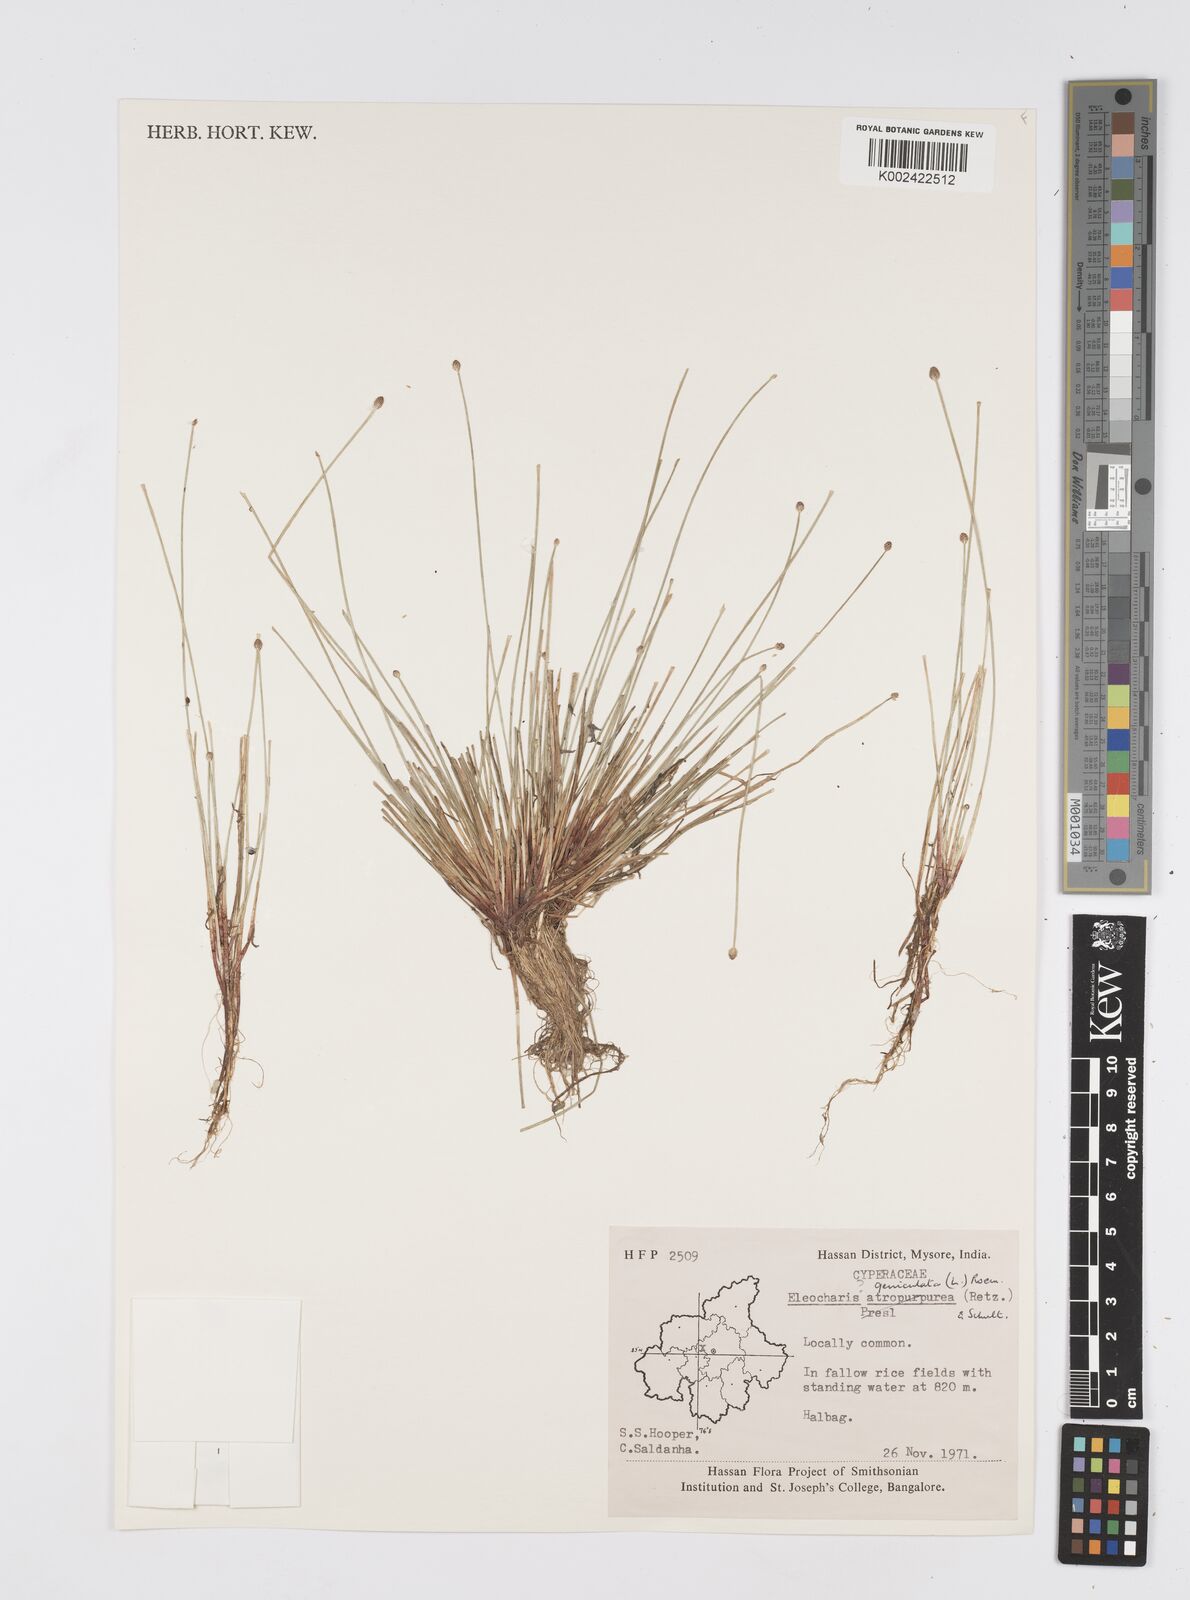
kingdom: Plantae
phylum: Tracheophyta
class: Liliopsida
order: Poales
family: Cyperaceae
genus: Eleocharis
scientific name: Eleocharis geniculata
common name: Canada spikesedge
